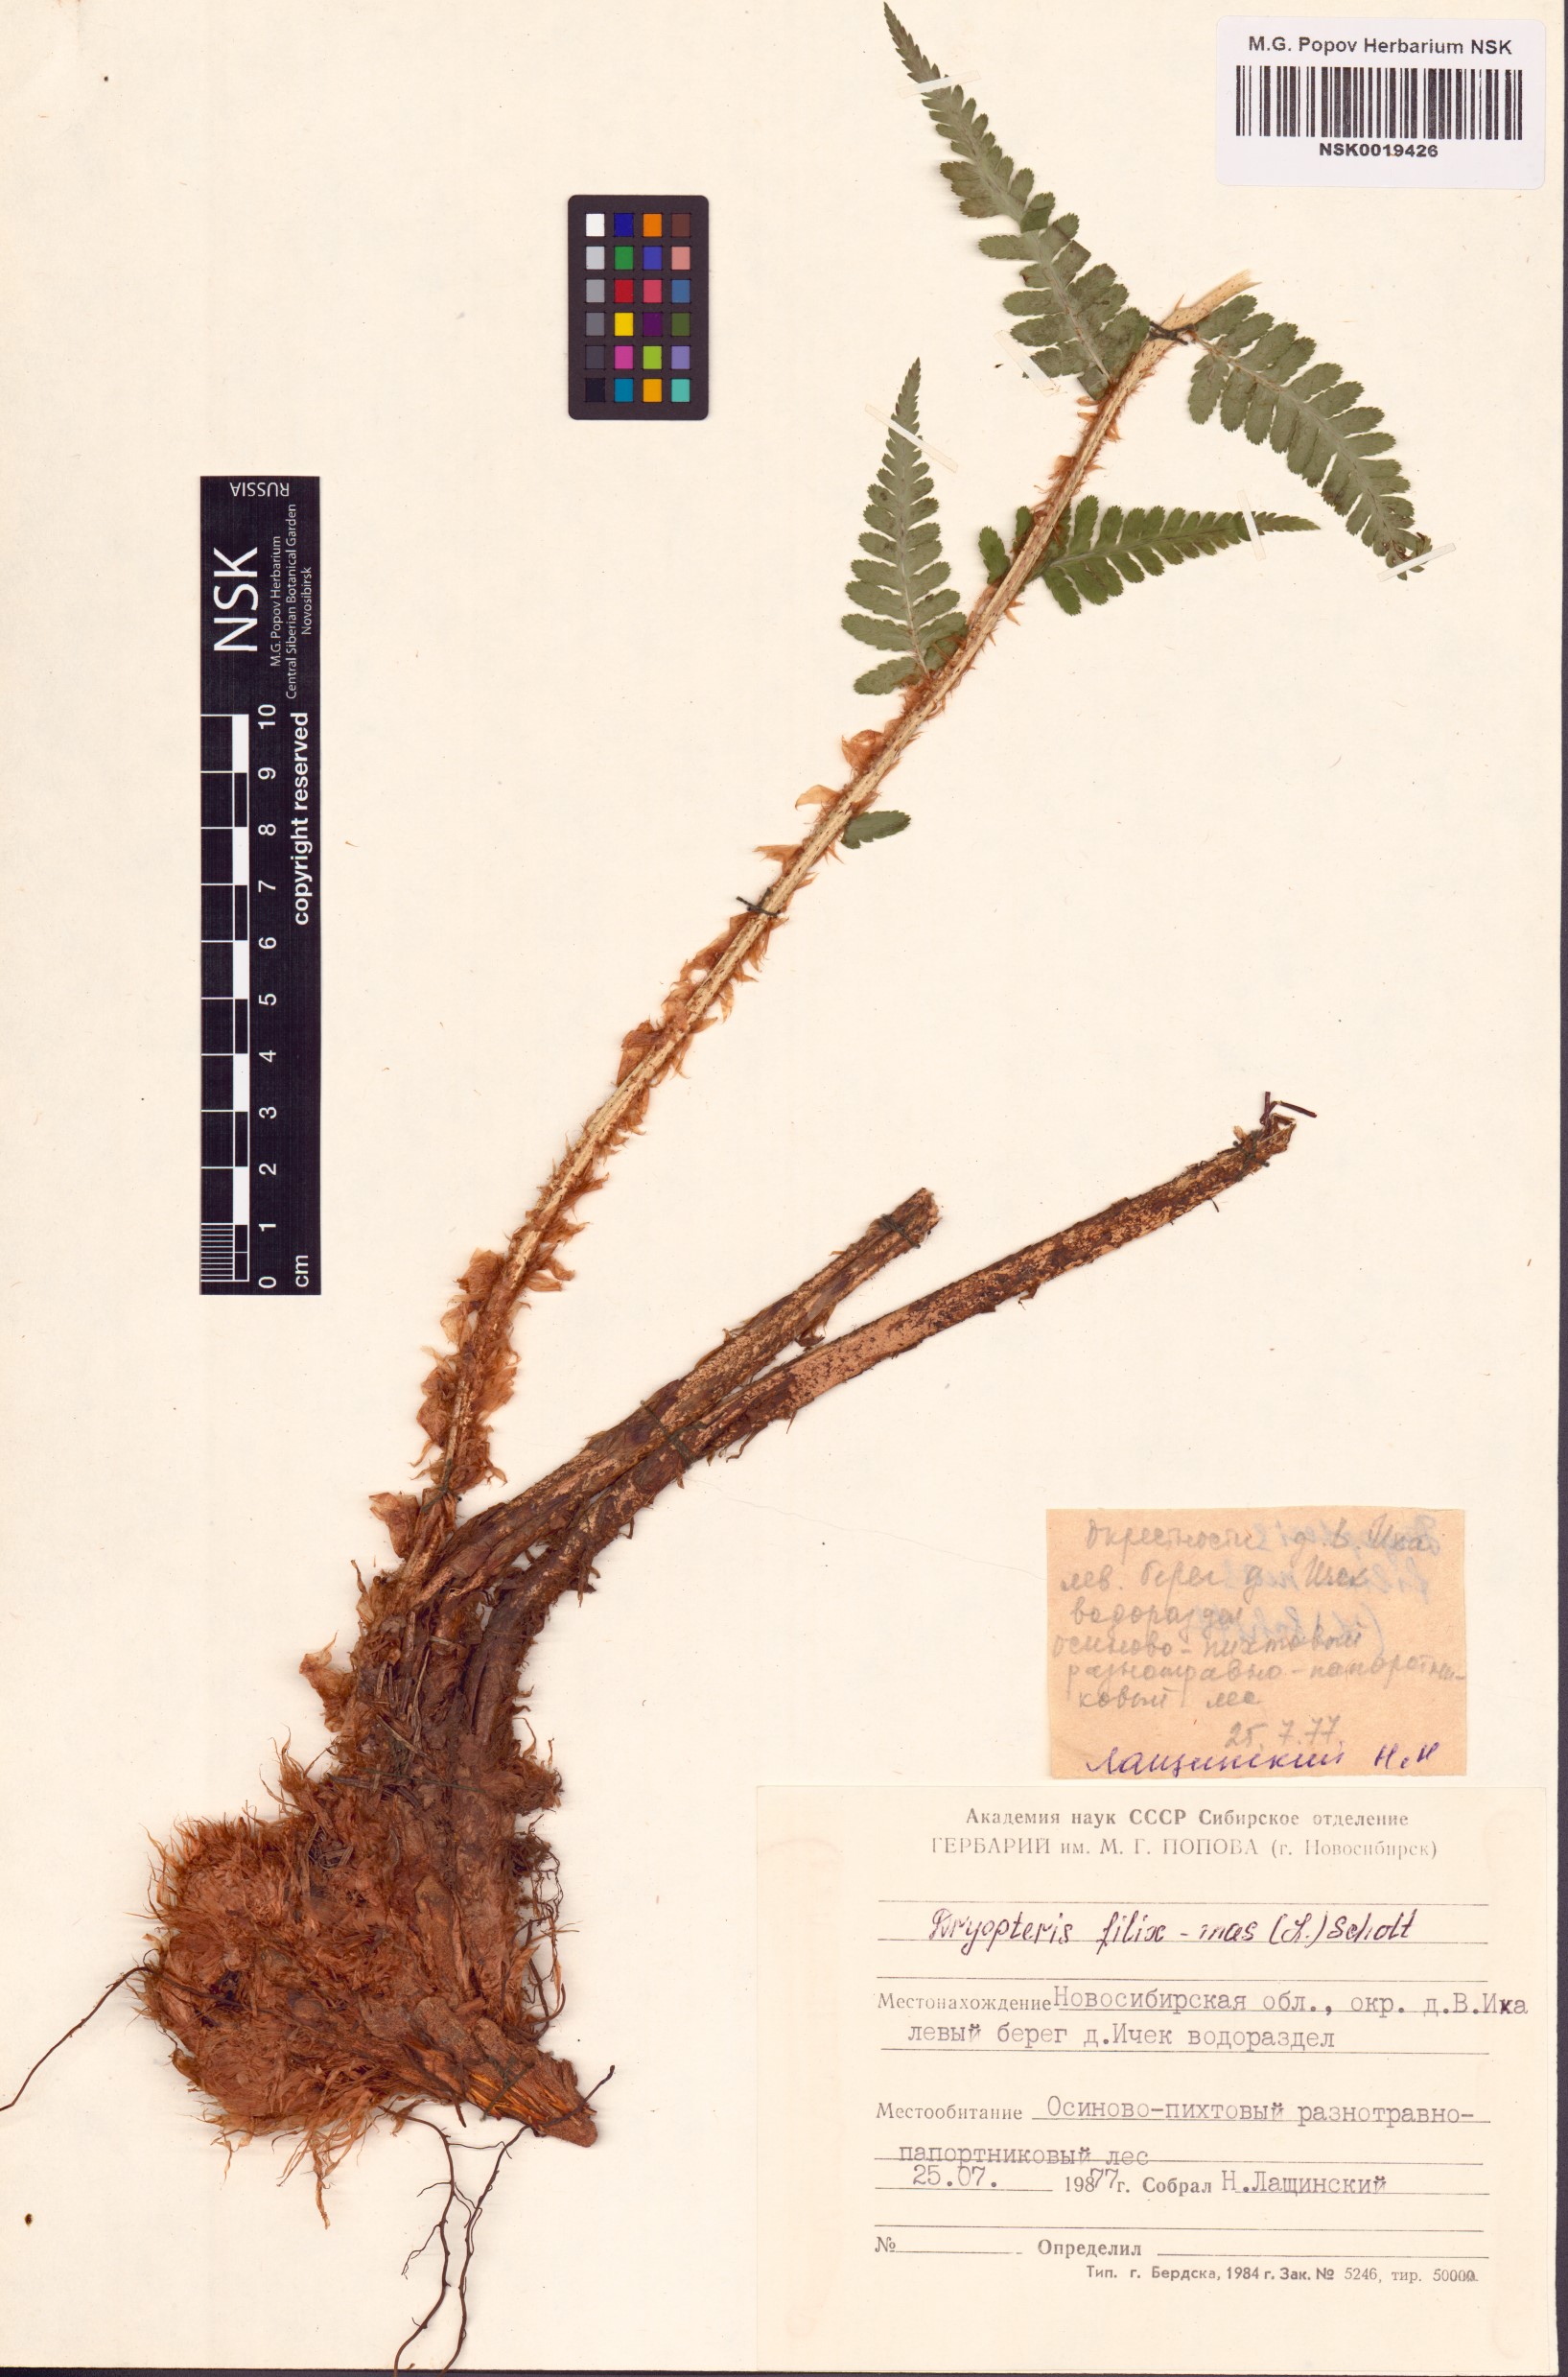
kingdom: Plantae
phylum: Tracheophyta
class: Polypodiopsida
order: Polypodiales
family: Dryopteridaceae
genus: Dryopteris
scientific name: Dryopteris filix-mas
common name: Male fern
